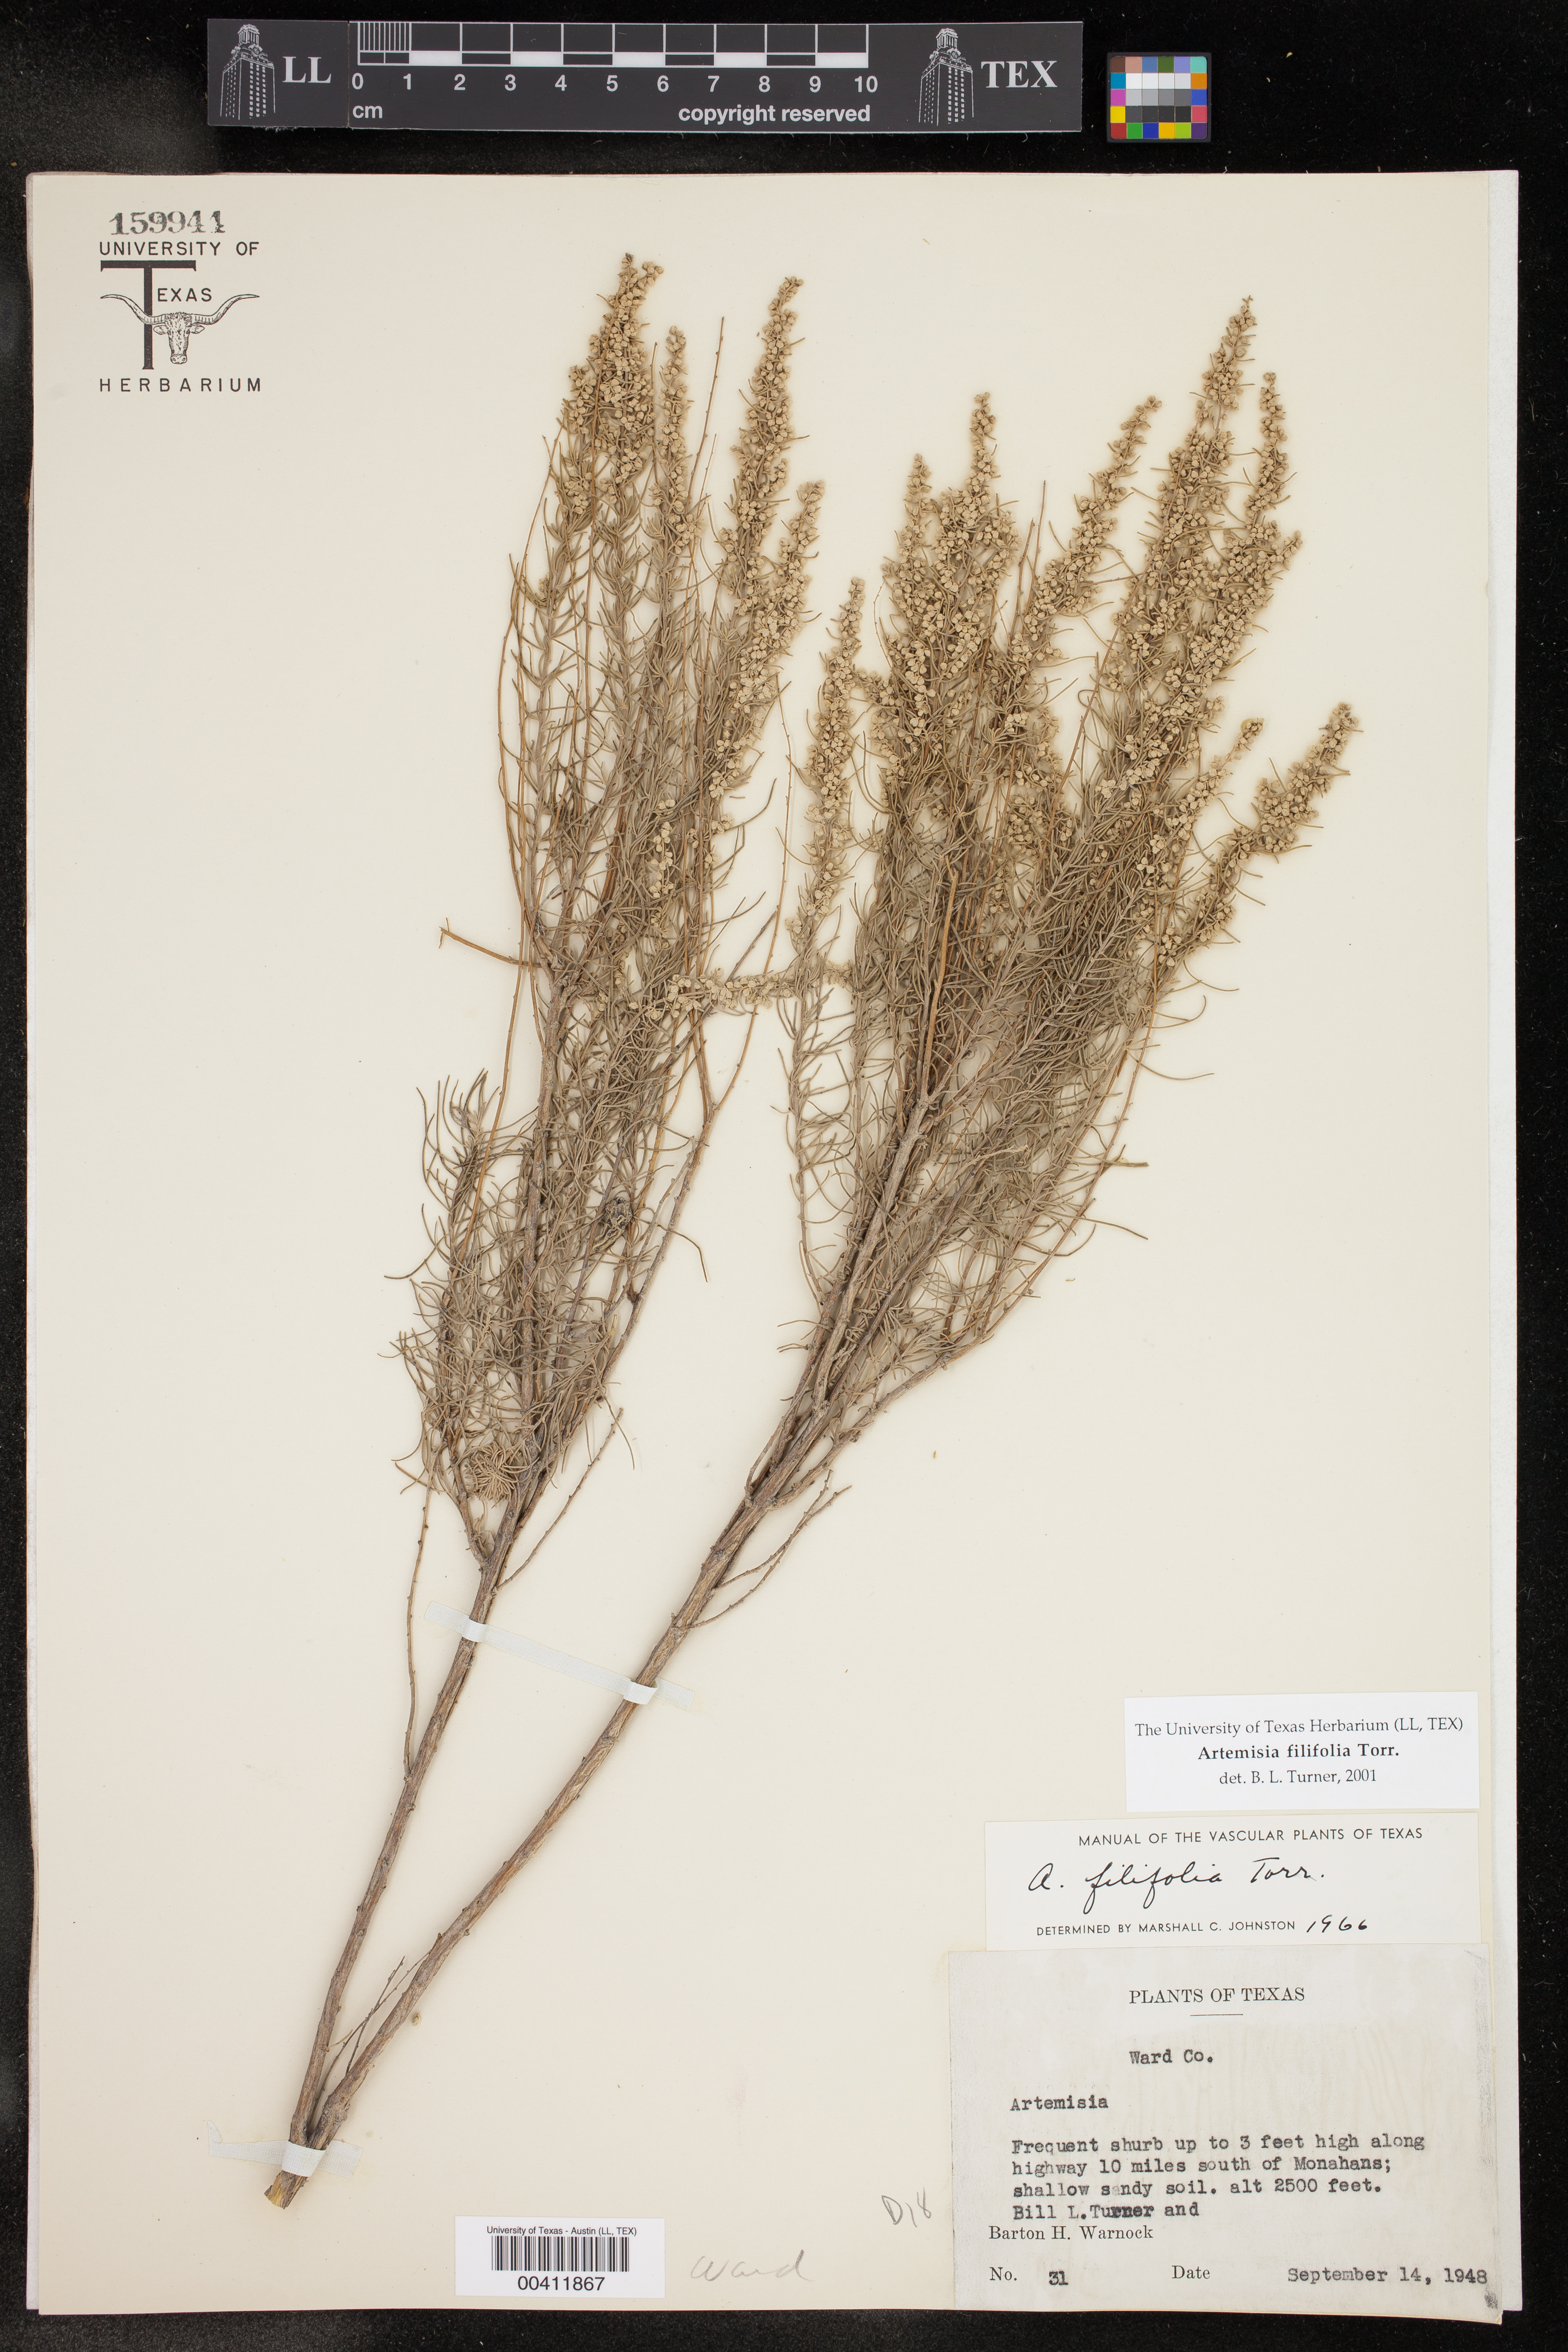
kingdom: Plantae
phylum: Tracheophyta
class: Magnoliopsida
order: Asterales
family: Asteraceae
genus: Artemisia
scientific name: Artemisia filifolia
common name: Sand-sage
